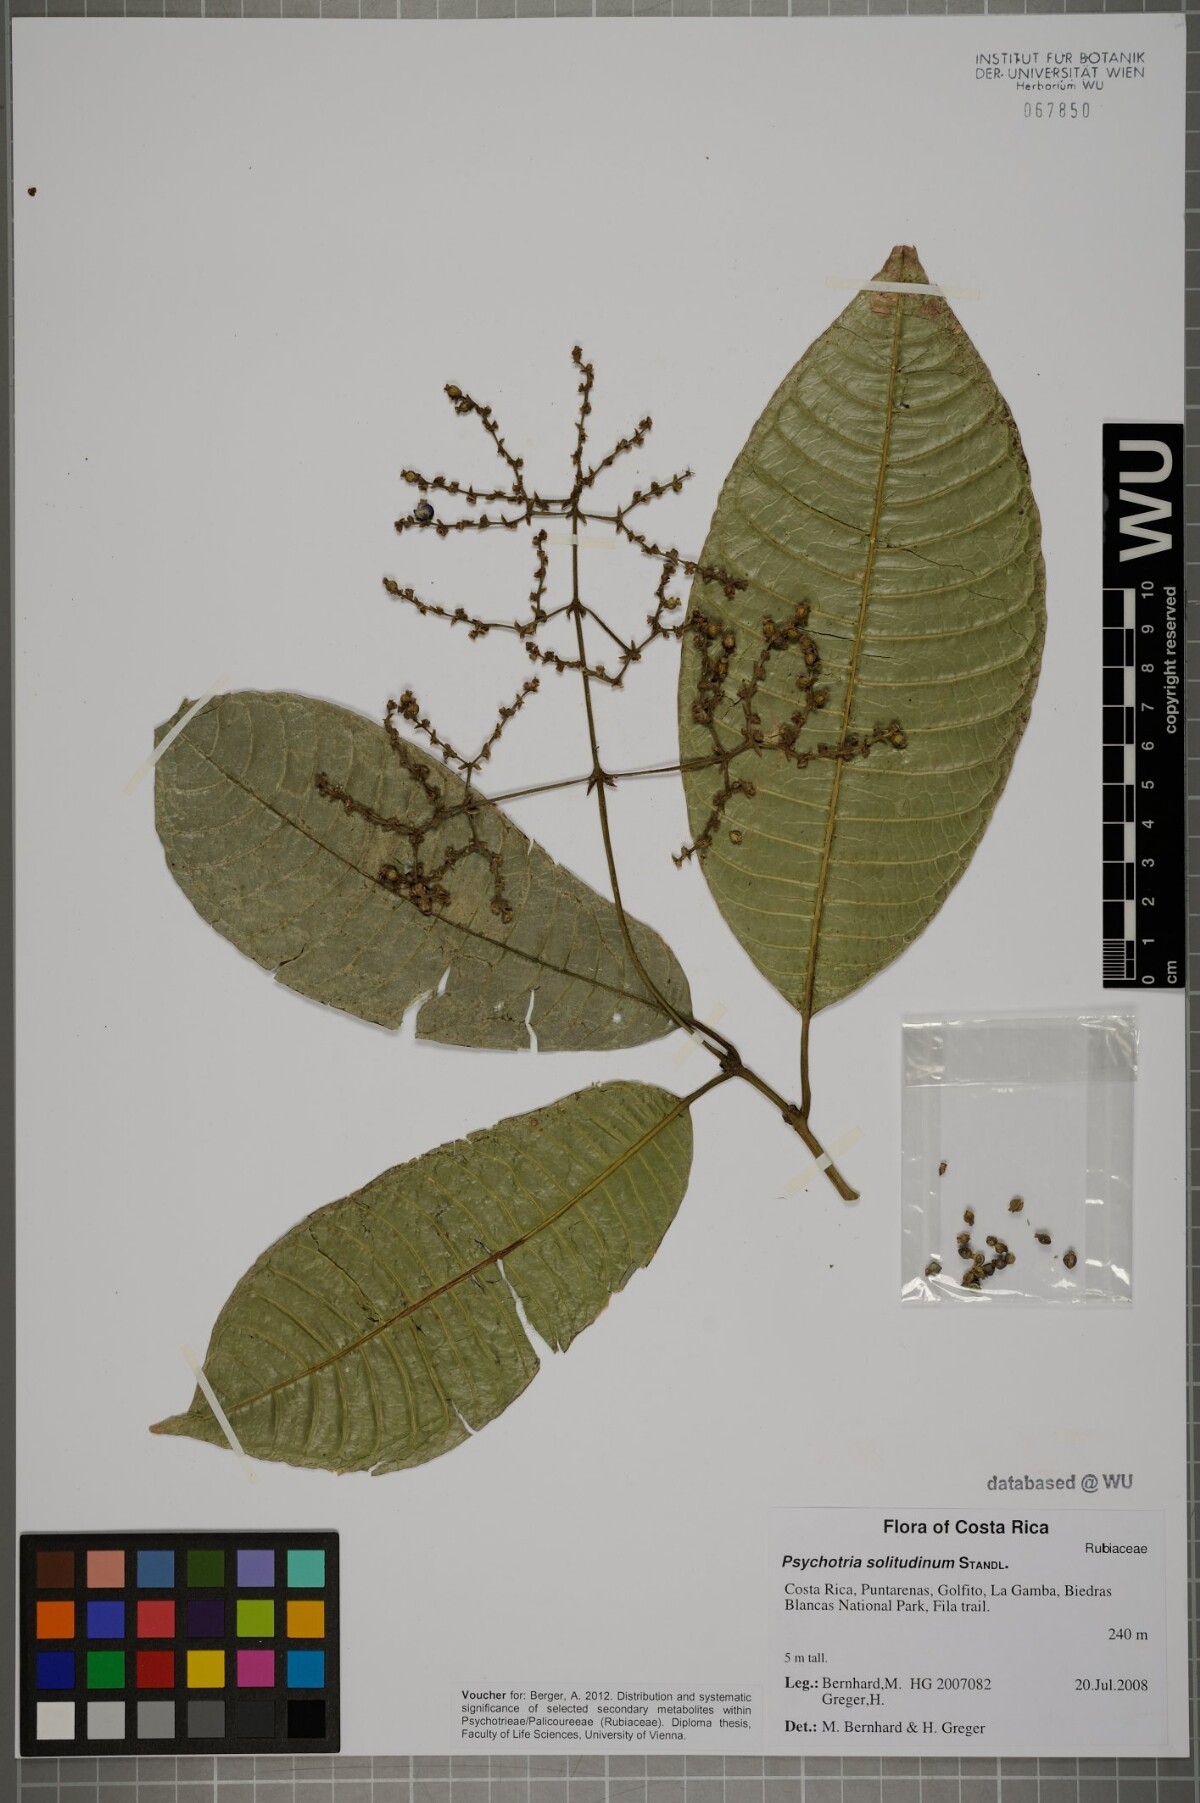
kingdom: Plantae
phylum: Tracheophyta
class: Magnoliopsida
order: Gentianales
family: Rubiaceae
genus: Palicourea
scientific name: Palicourea solitudinum
